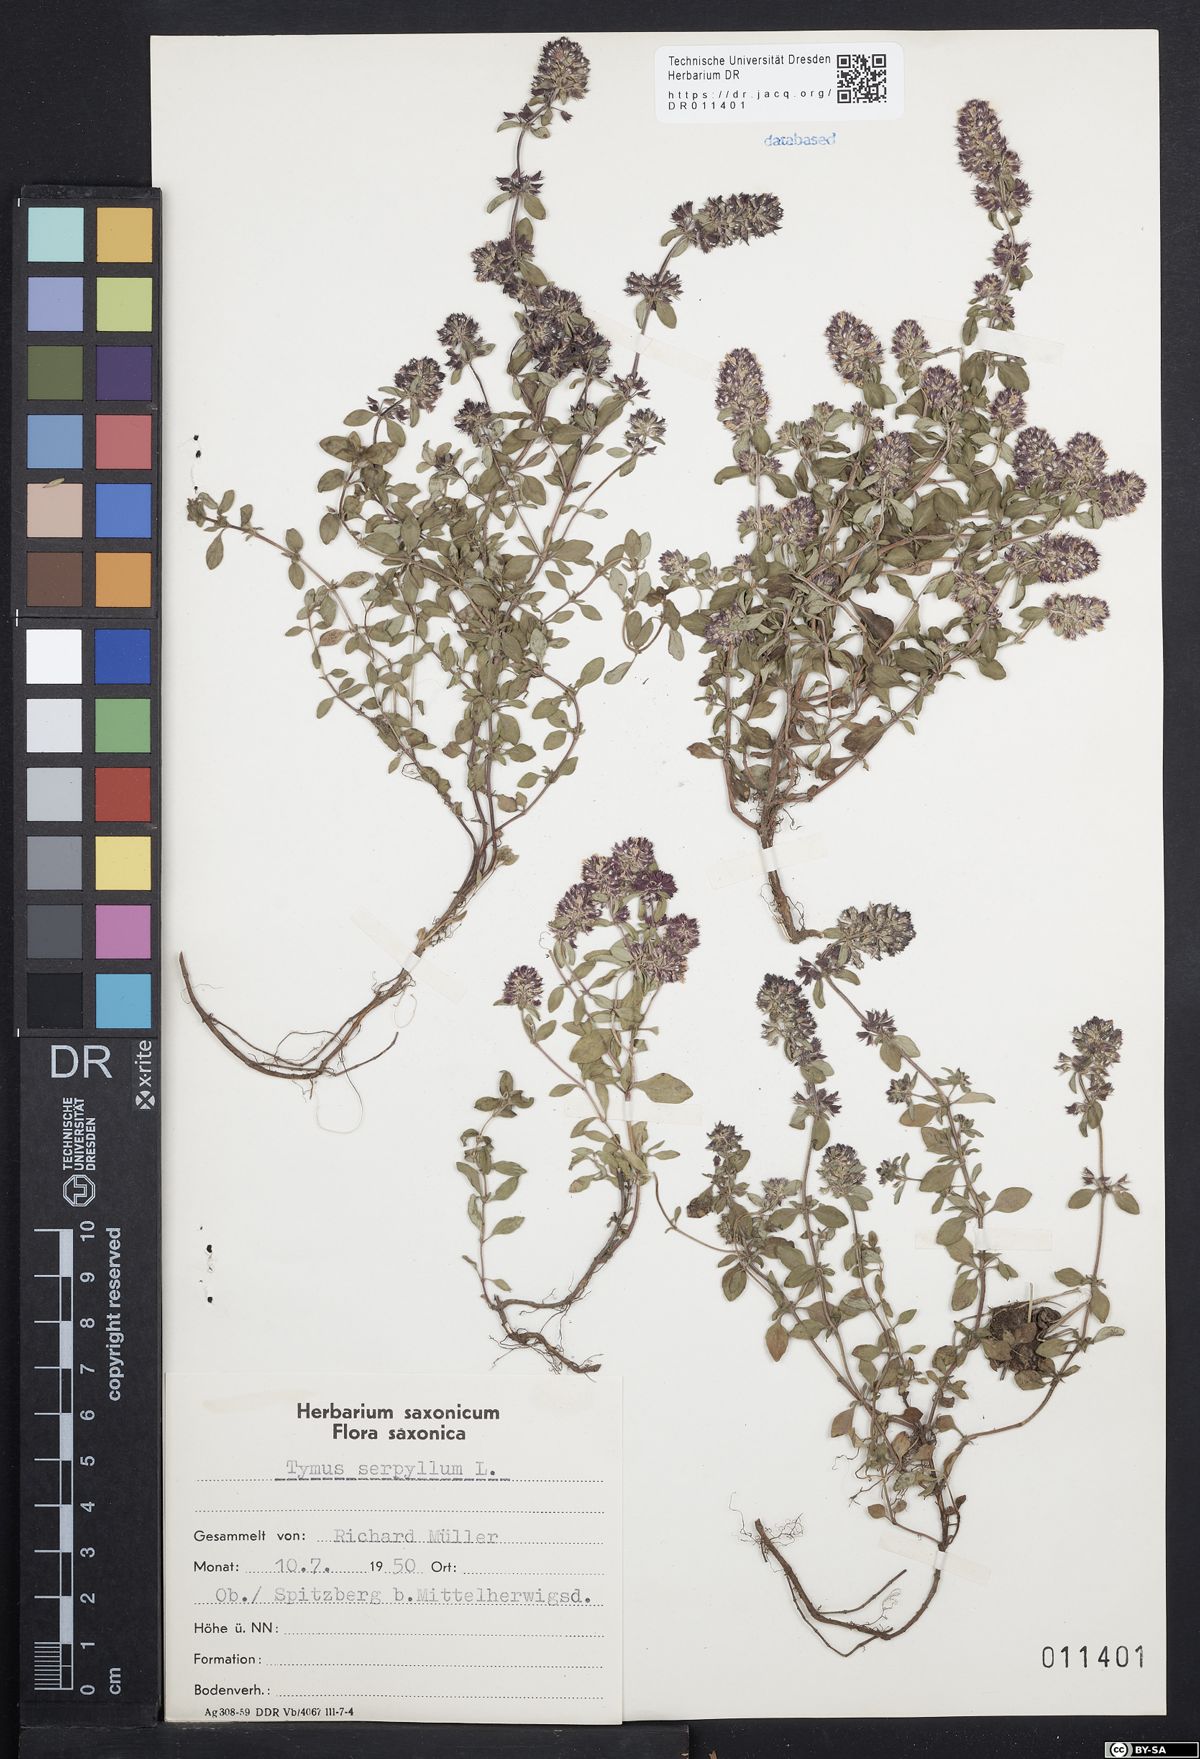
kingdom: Plantae
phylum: Tracheophyta
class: Magnoliopsida
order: Lamiales
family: Lamiaceae
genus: Thymus
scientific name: Thymus serpyllum
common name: Breckland thyme
